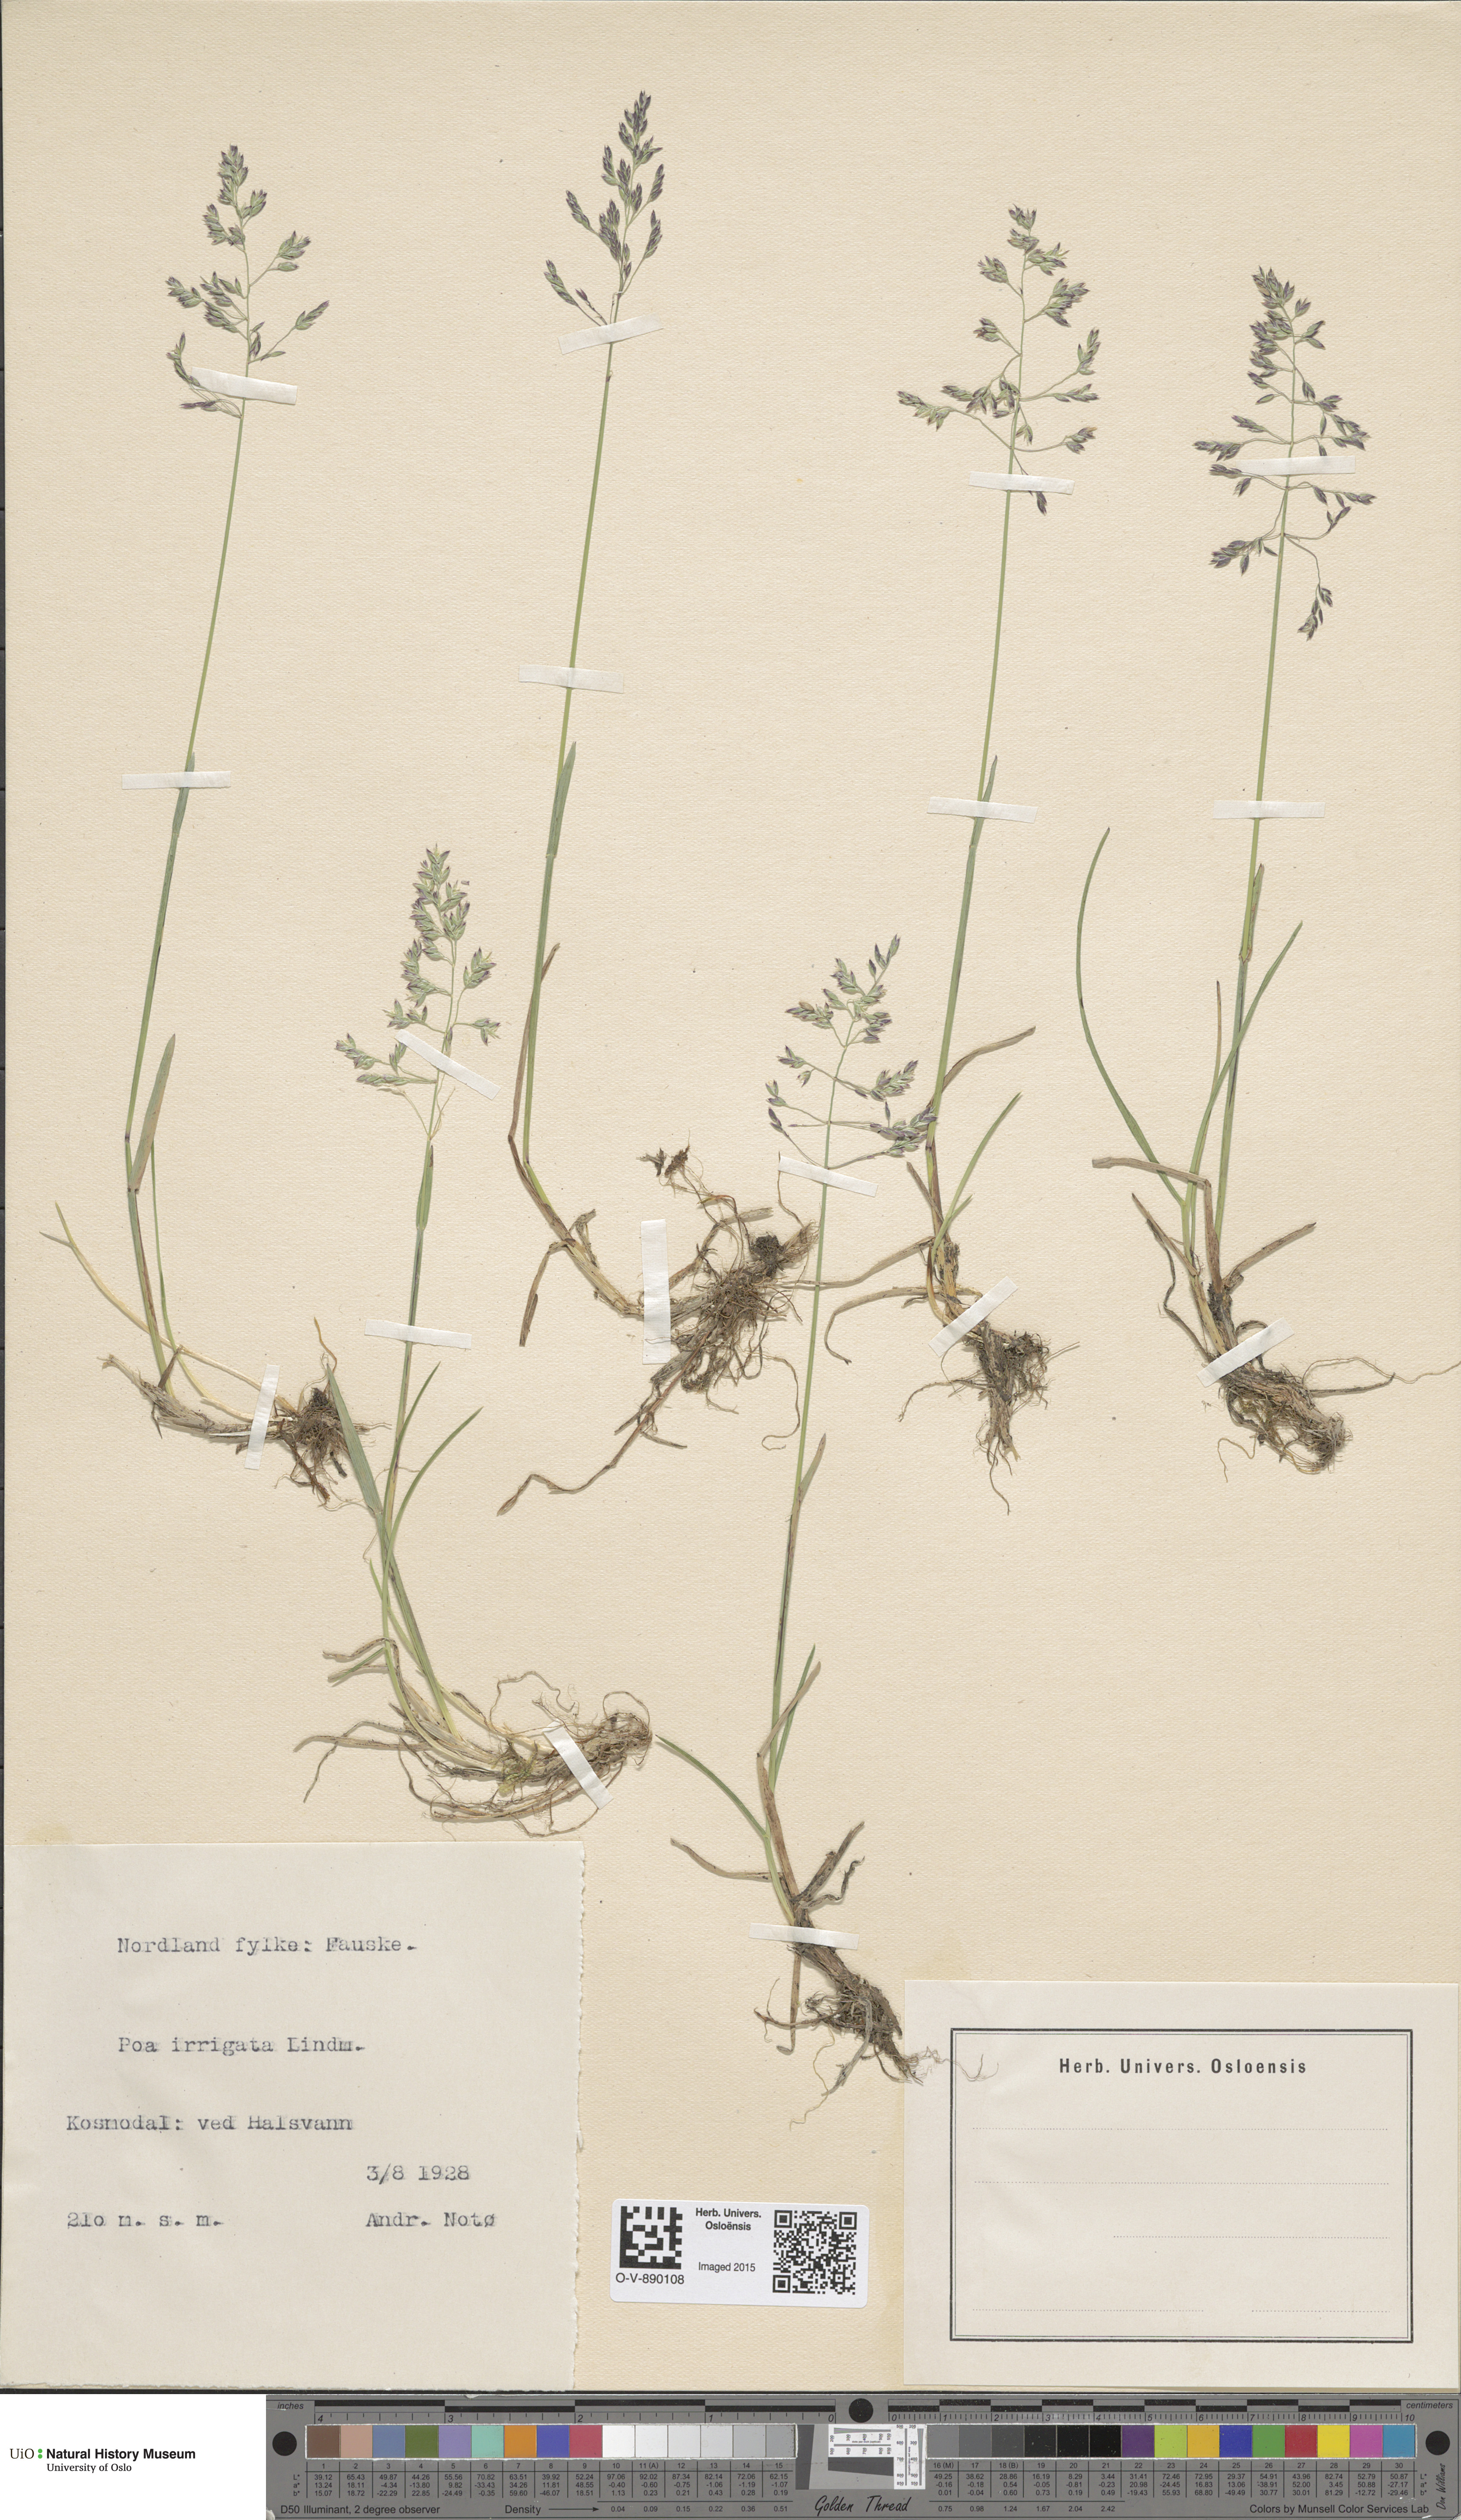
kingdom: Plantae
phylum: Tracheophyta
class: Liliopsida
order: Poales
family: Poaceae
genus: Poa
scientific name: Poa humilis
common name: Spreading meadow-grass
